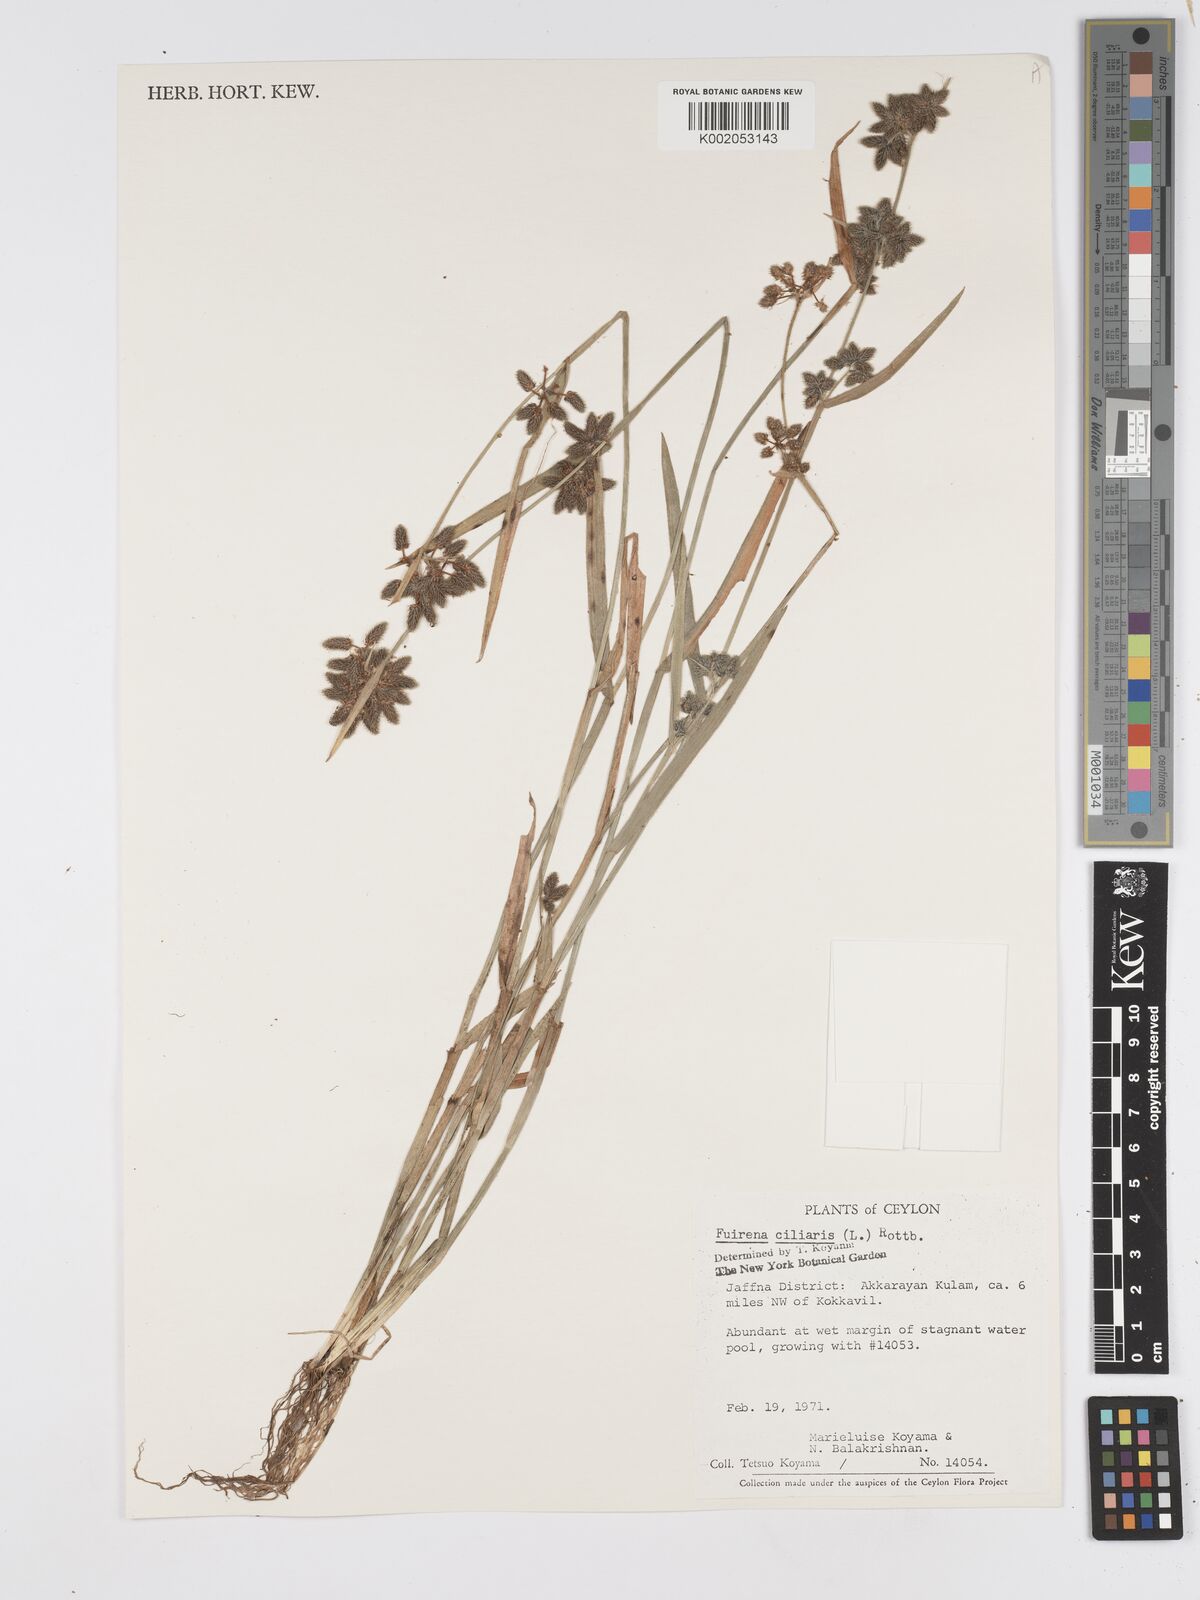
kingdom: Plantae
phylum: Tracheophyta
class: Liliopsida
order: Poales
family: Cyperaceae
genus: Fuirena
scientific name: Fuirena ciliaris
